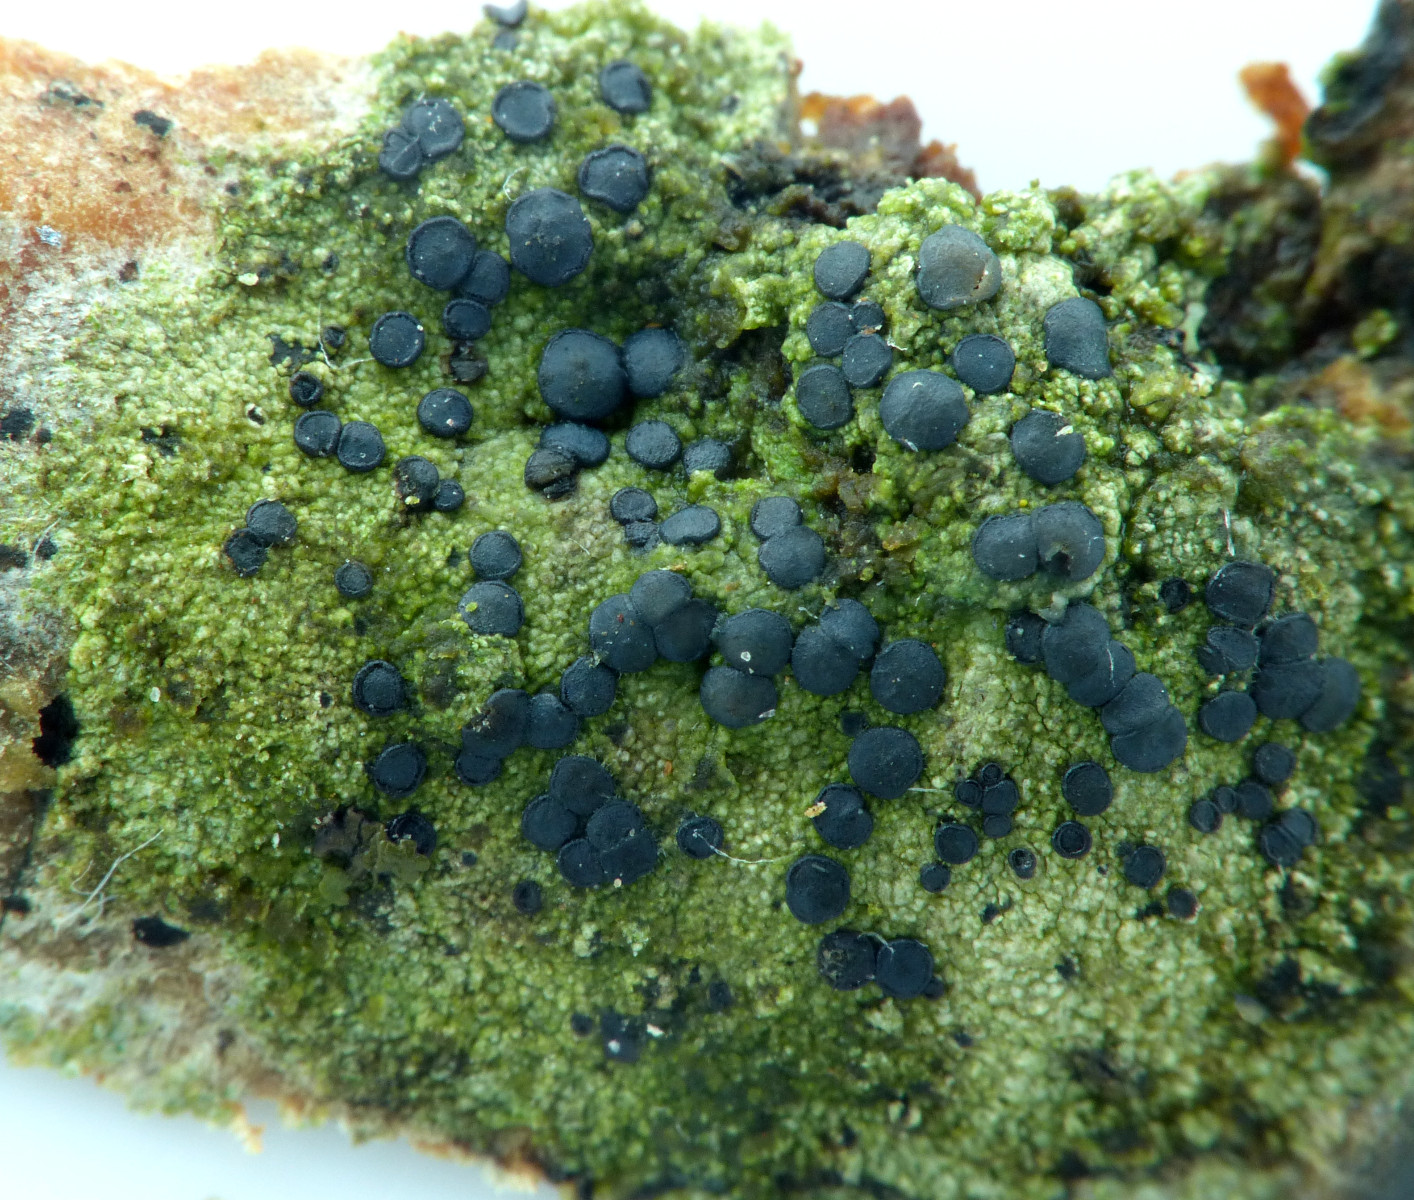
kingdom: Fungi
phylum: Ascomycota
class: Lecanoromycetes
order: Lecanorales
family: Lecanoraceae
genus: Lecidella
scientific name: Lecidella euphorea
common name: vortet skivelav
